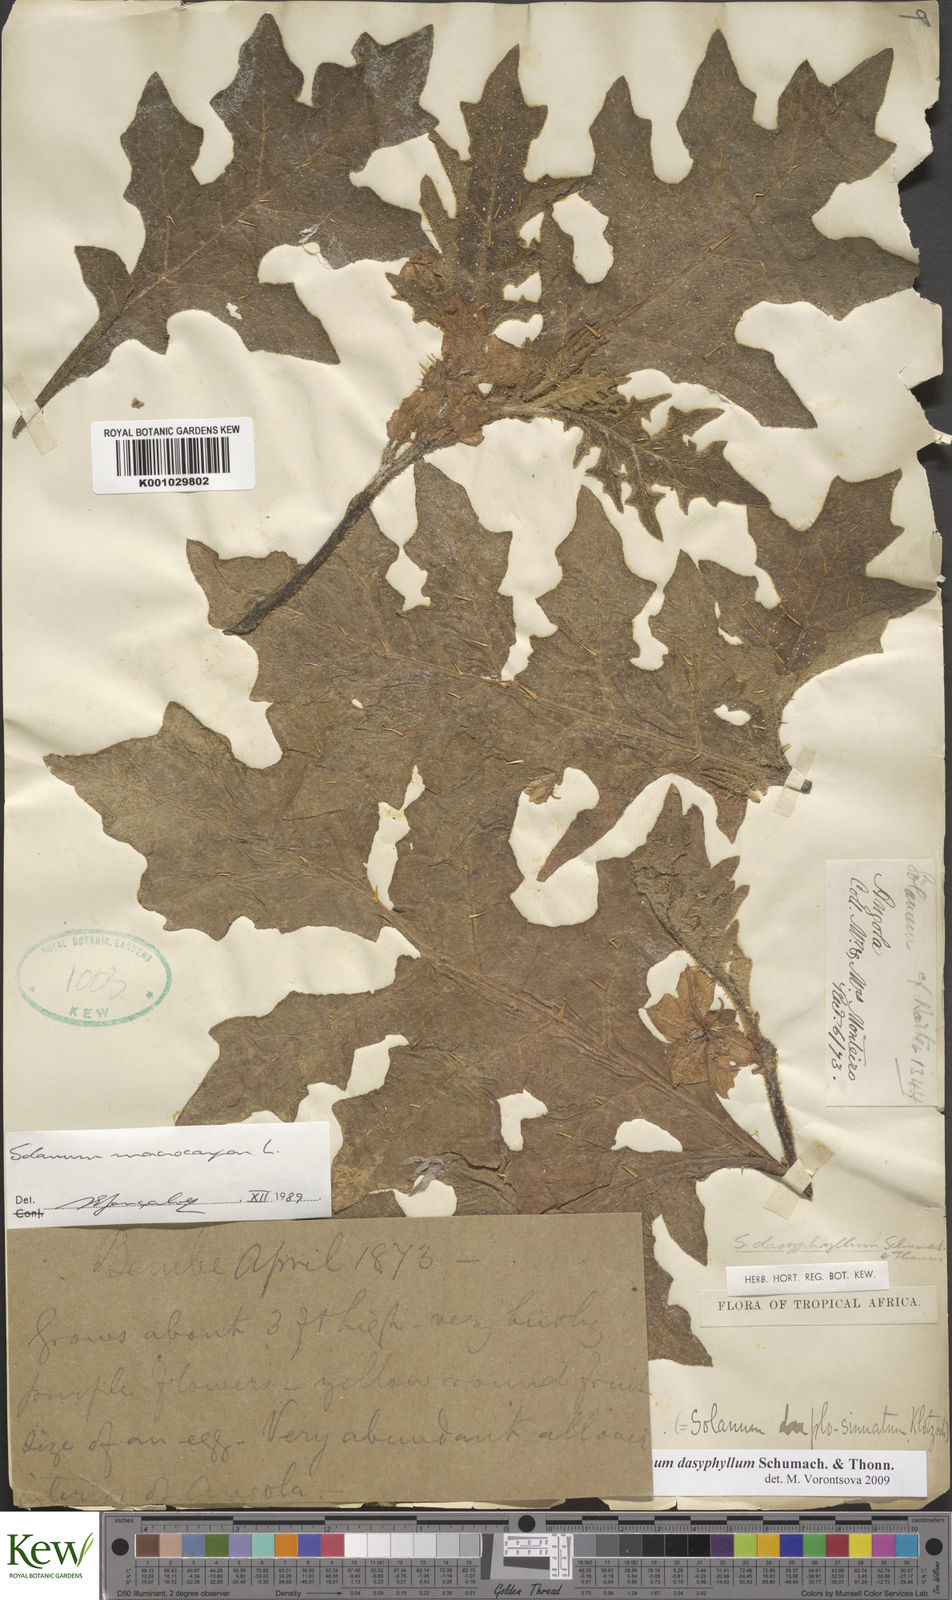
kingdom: Plantae
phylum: Tracheophyta
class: Magnoliopsida
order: Solanales
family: Solanaceae
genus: Solanum
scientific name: Solanum dasyphyllum
